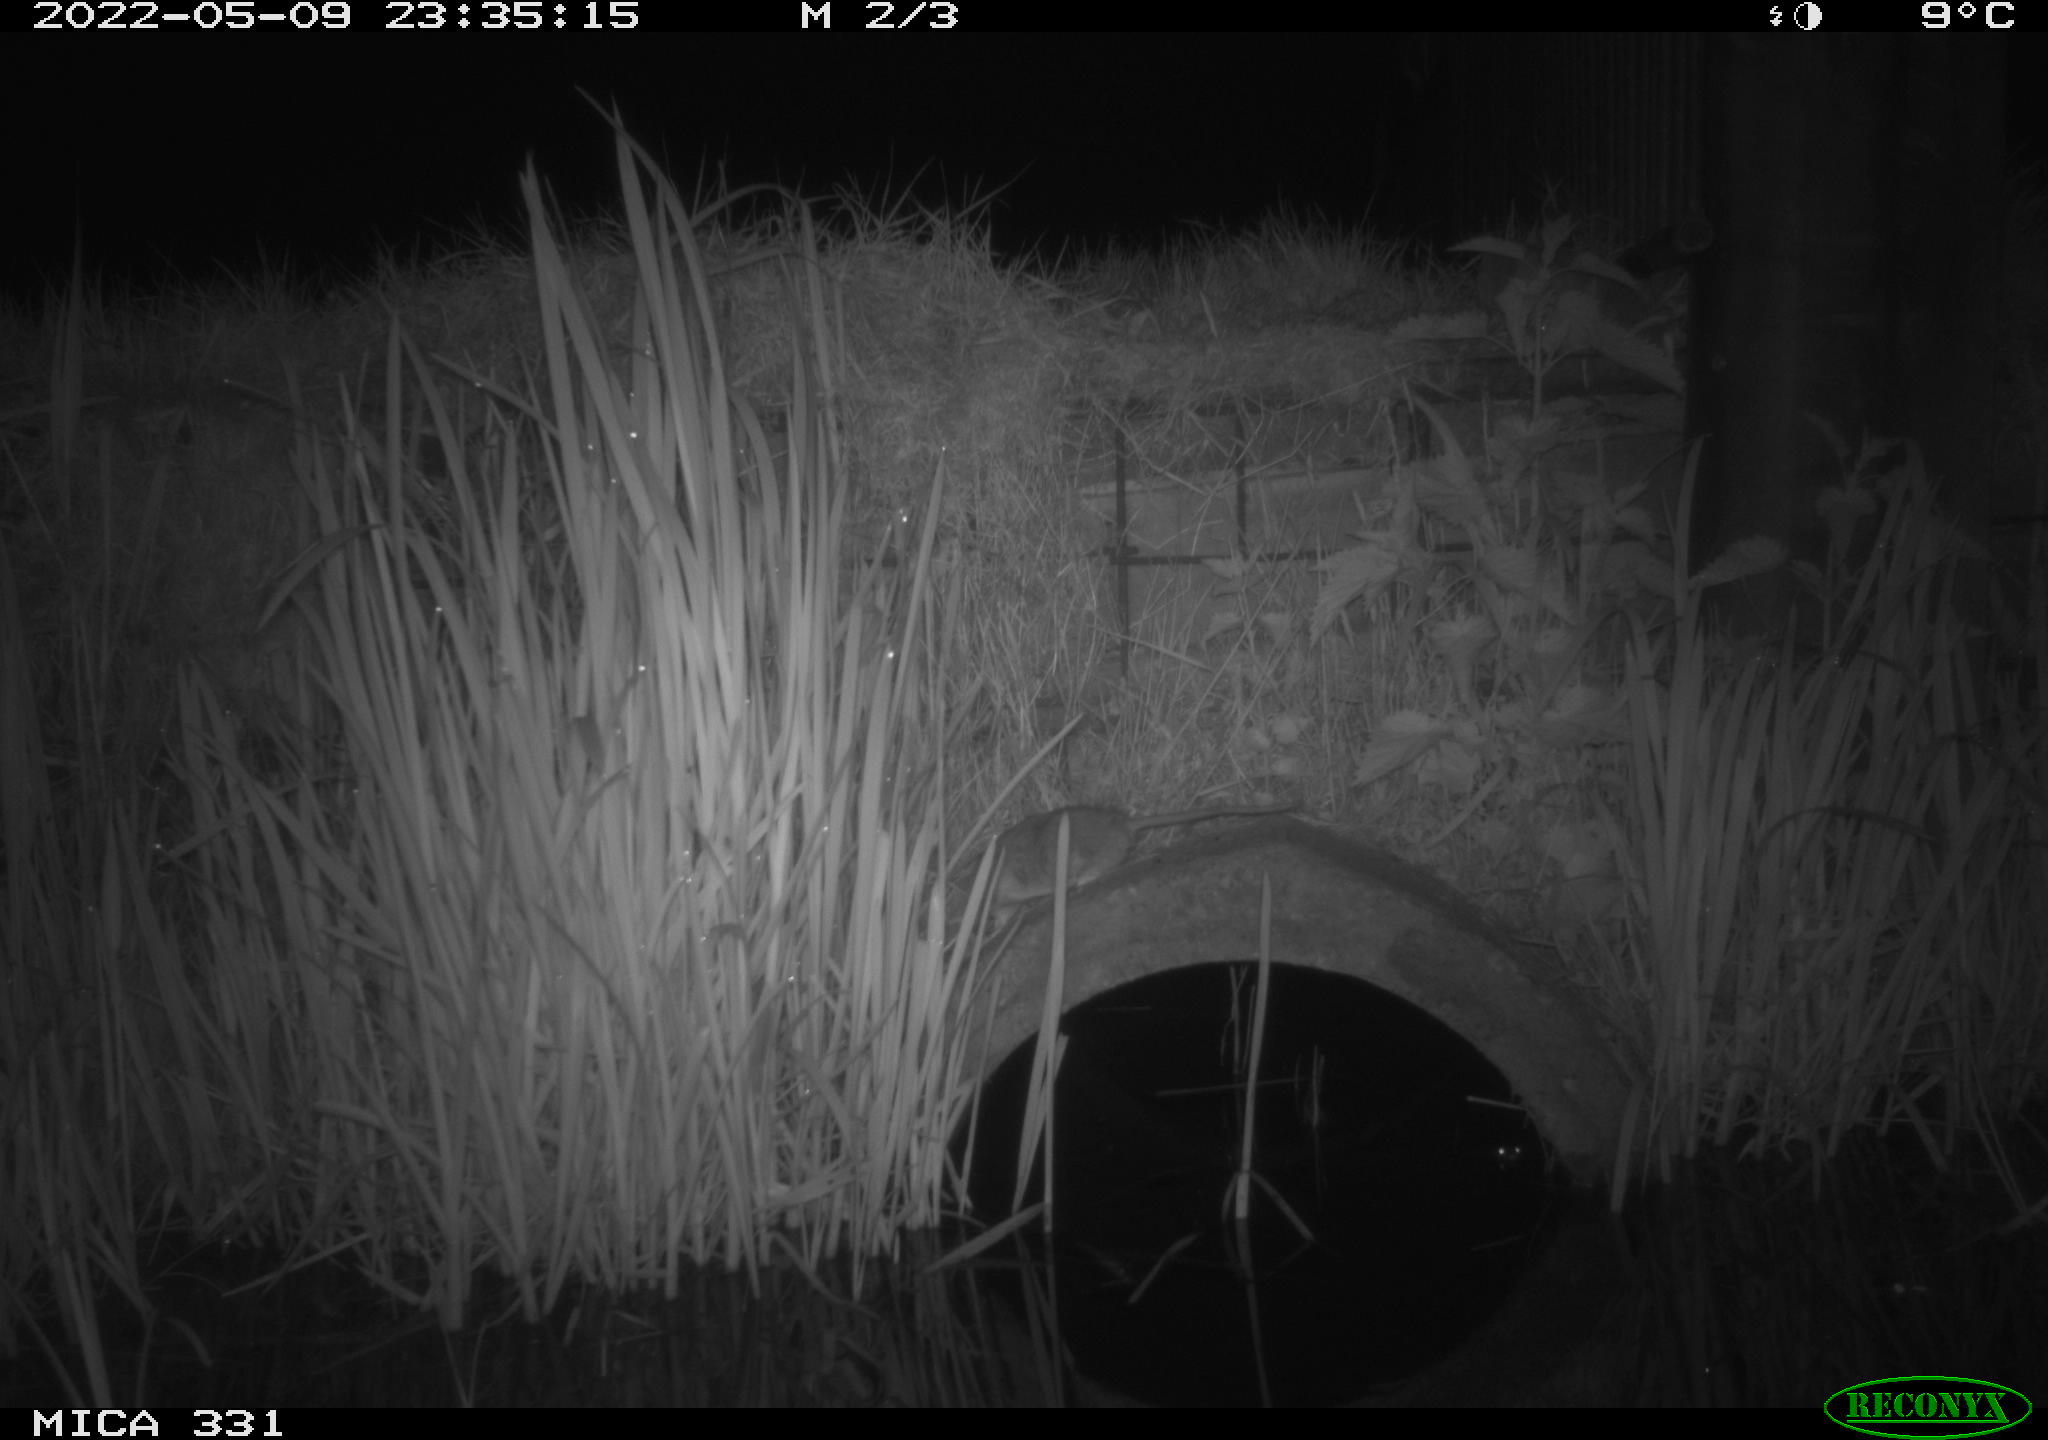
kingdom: Animalia
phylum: Chordata
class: Mammalia
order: Rodentia
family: Muridae
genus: Rattus
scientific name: Rattus norvegicus
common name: Brown rat
